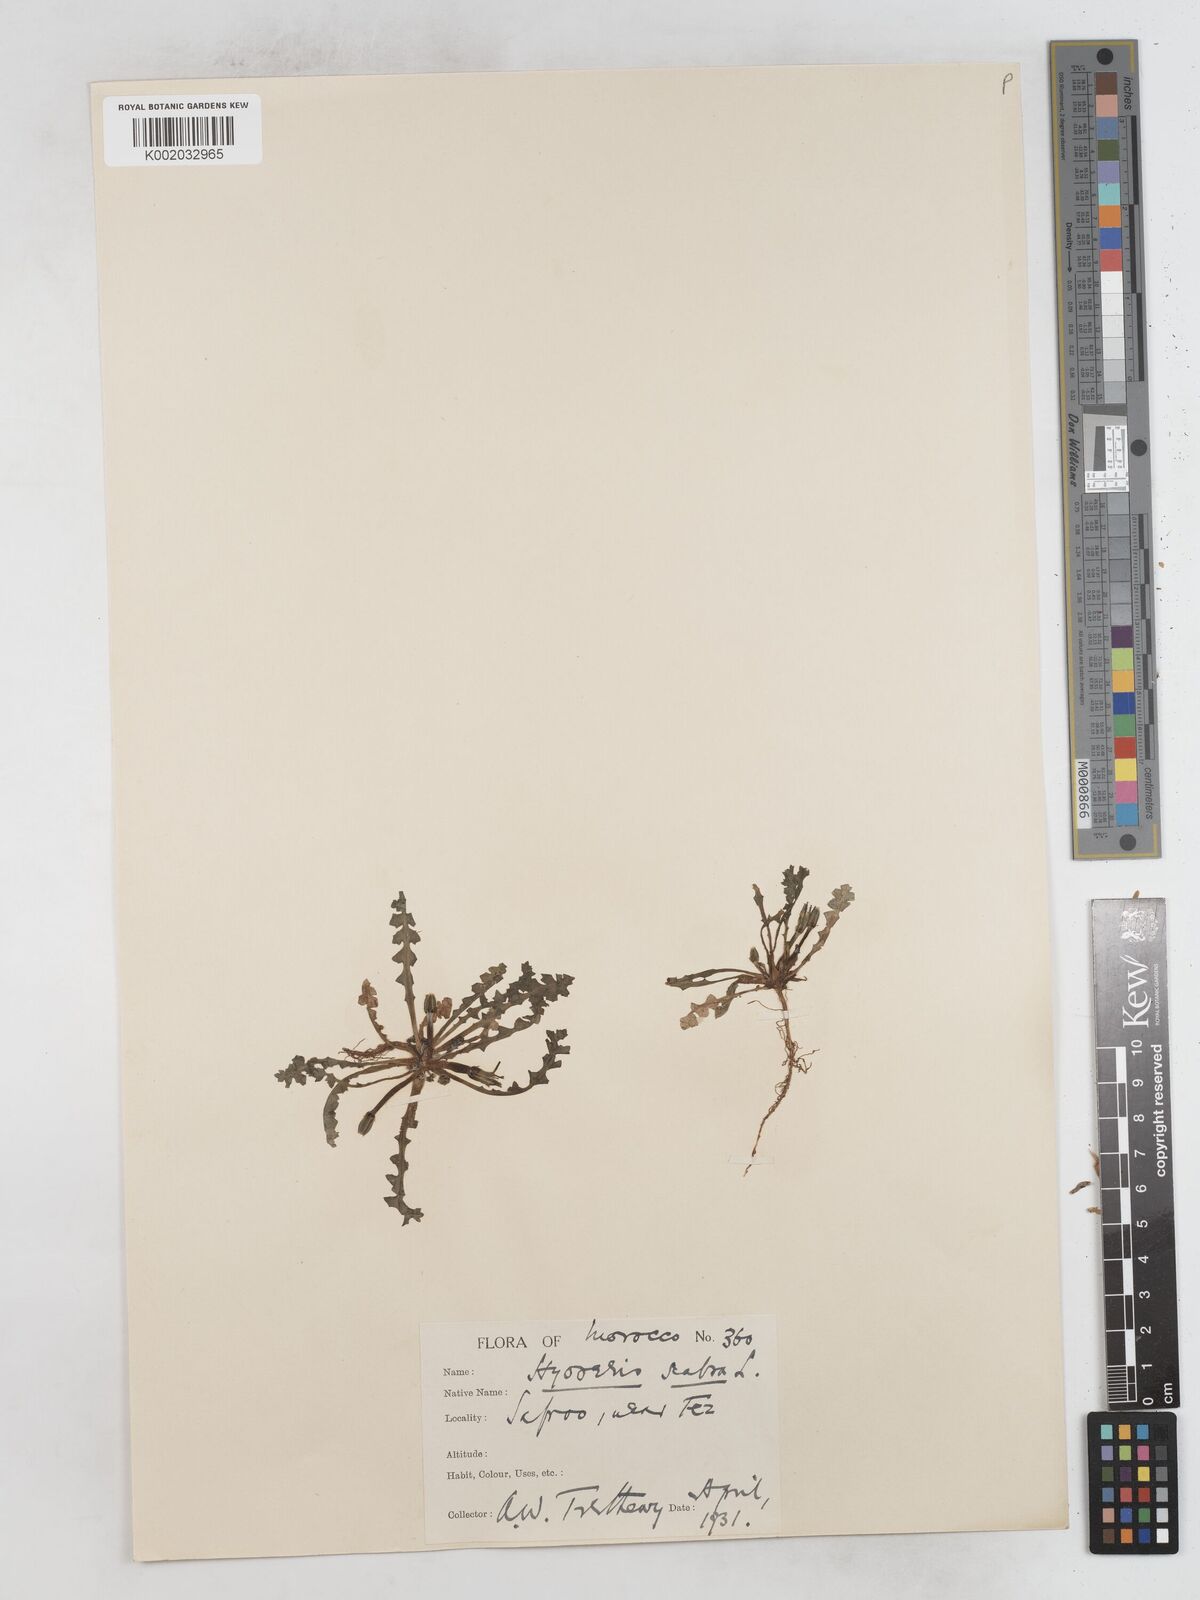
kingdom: Plantae
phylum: Tracheophyta
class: Magnoliopsida
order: Asterales
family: Asteraceae
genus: Hyoseris
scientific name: Hyoseris scabra
